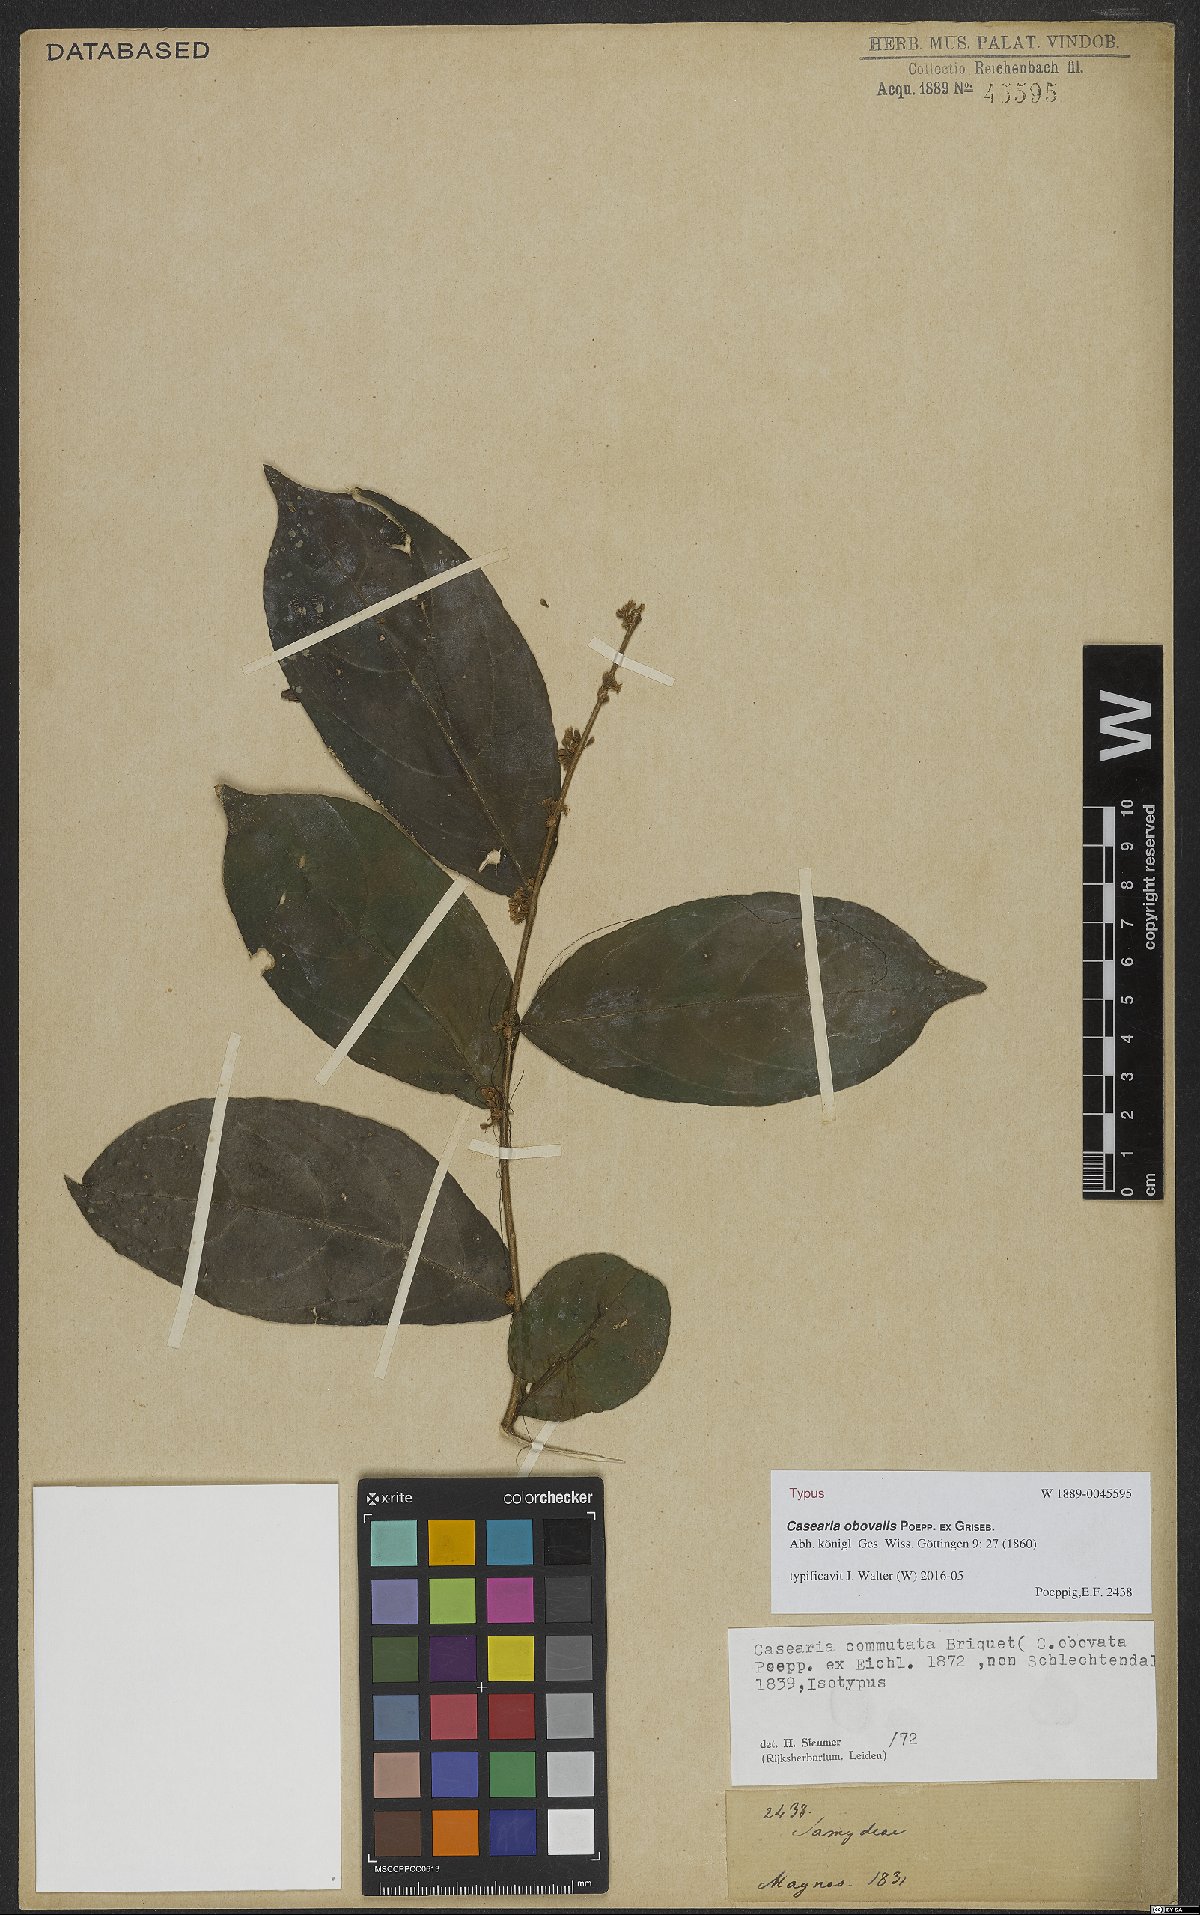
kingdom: Plantae
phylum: Tracheophyta
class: Magnoliopsida
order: Malpighiales
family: Salicaceae
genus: Casearia
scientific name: Casearia obovalis
